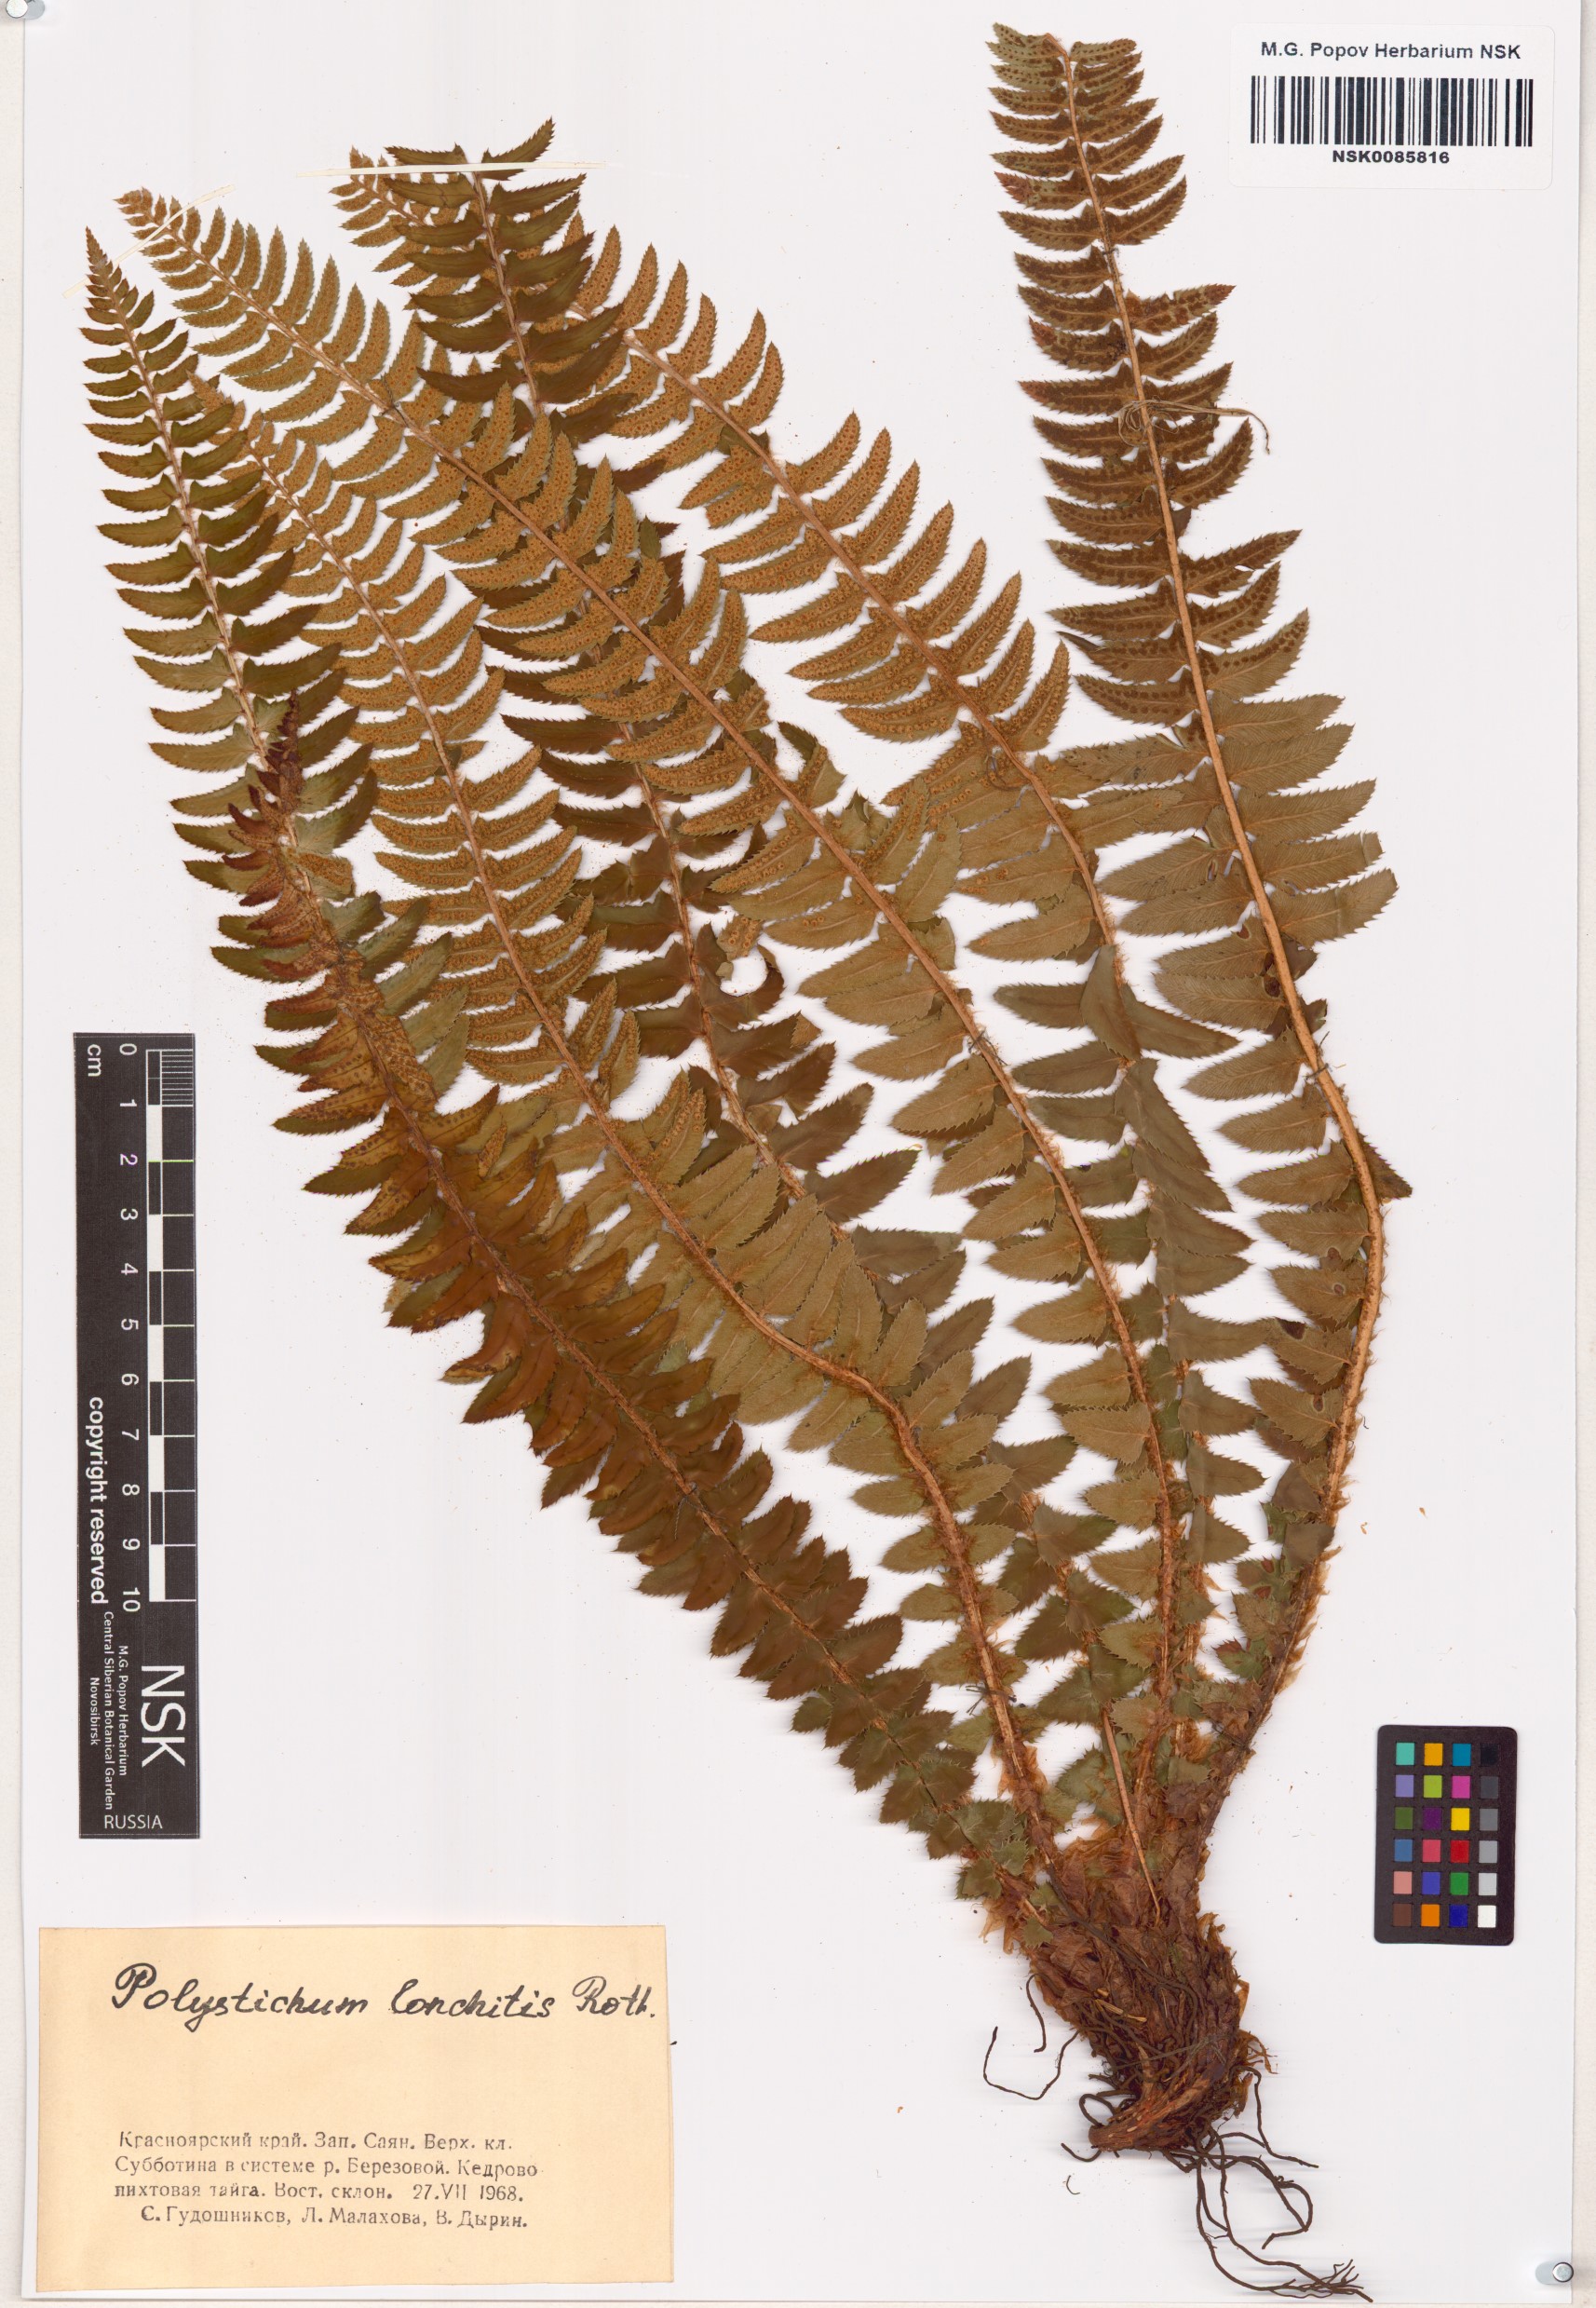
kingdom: Plantae
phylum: Tracheophyta
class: Polypodiopsida
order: Polypodiales
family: Dryopteridaceae
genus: Polystichum
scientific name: Polystichum lonchitis
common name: Holly fern
